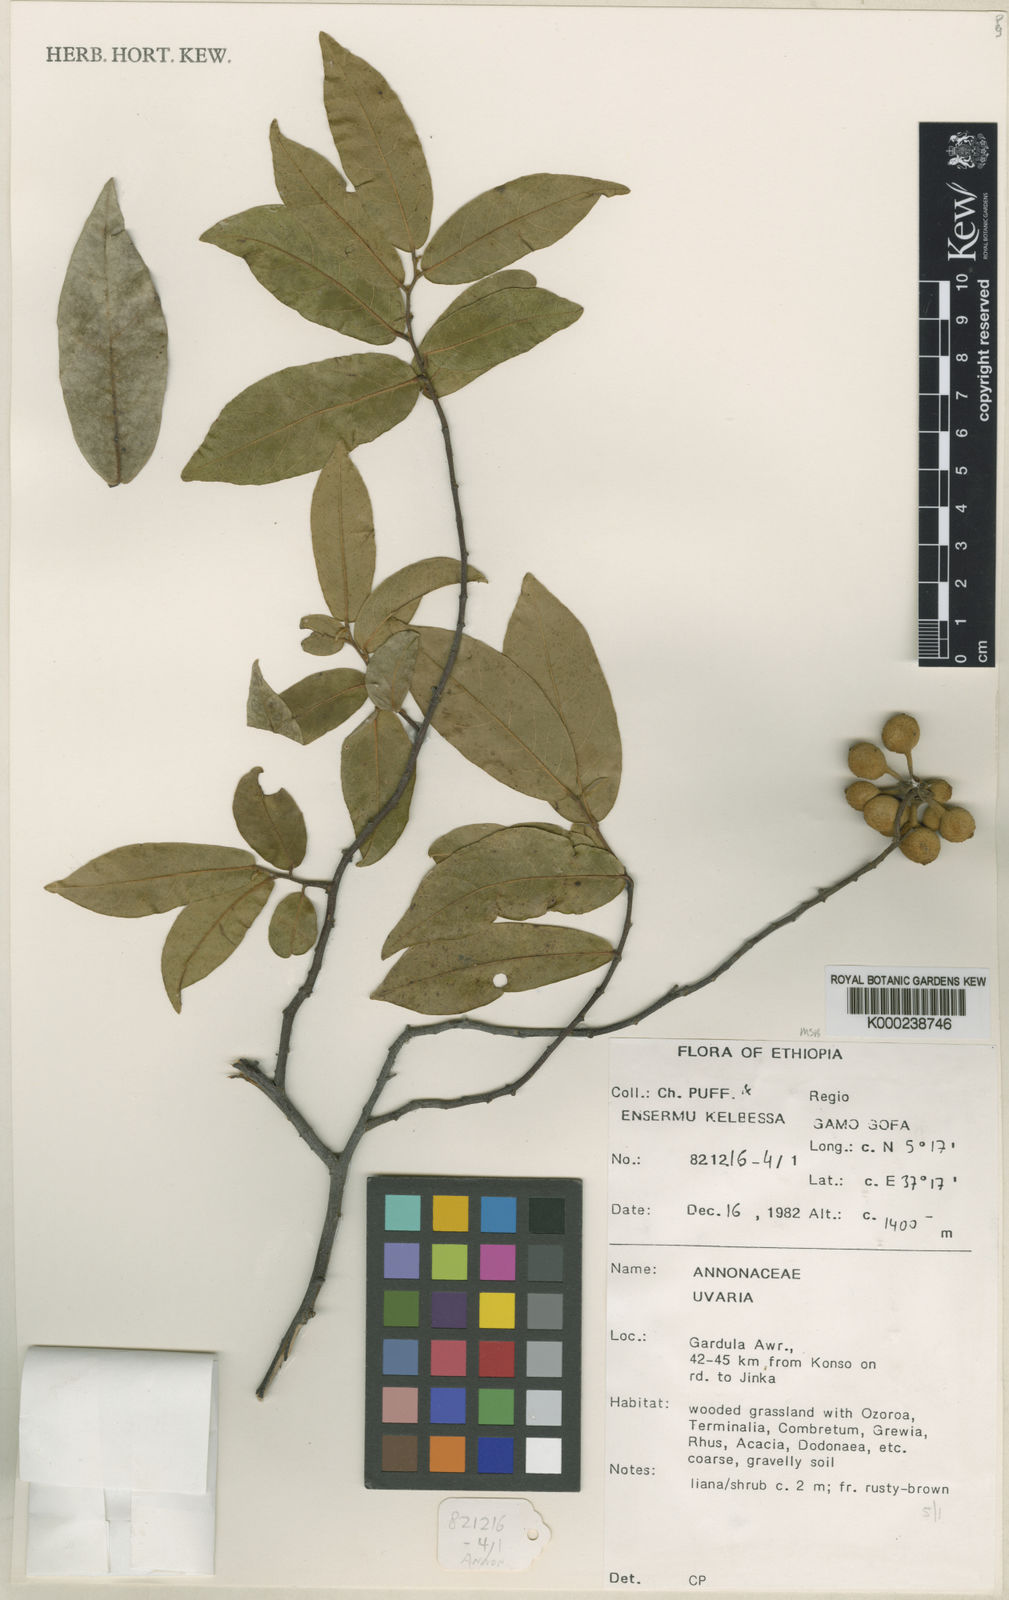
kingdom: Plantae
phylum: Tracheophyta
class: Magnoliopsida
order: Magnoliales
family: Annonaceae
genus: Uvaria
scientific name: Uvaria leptocladon
